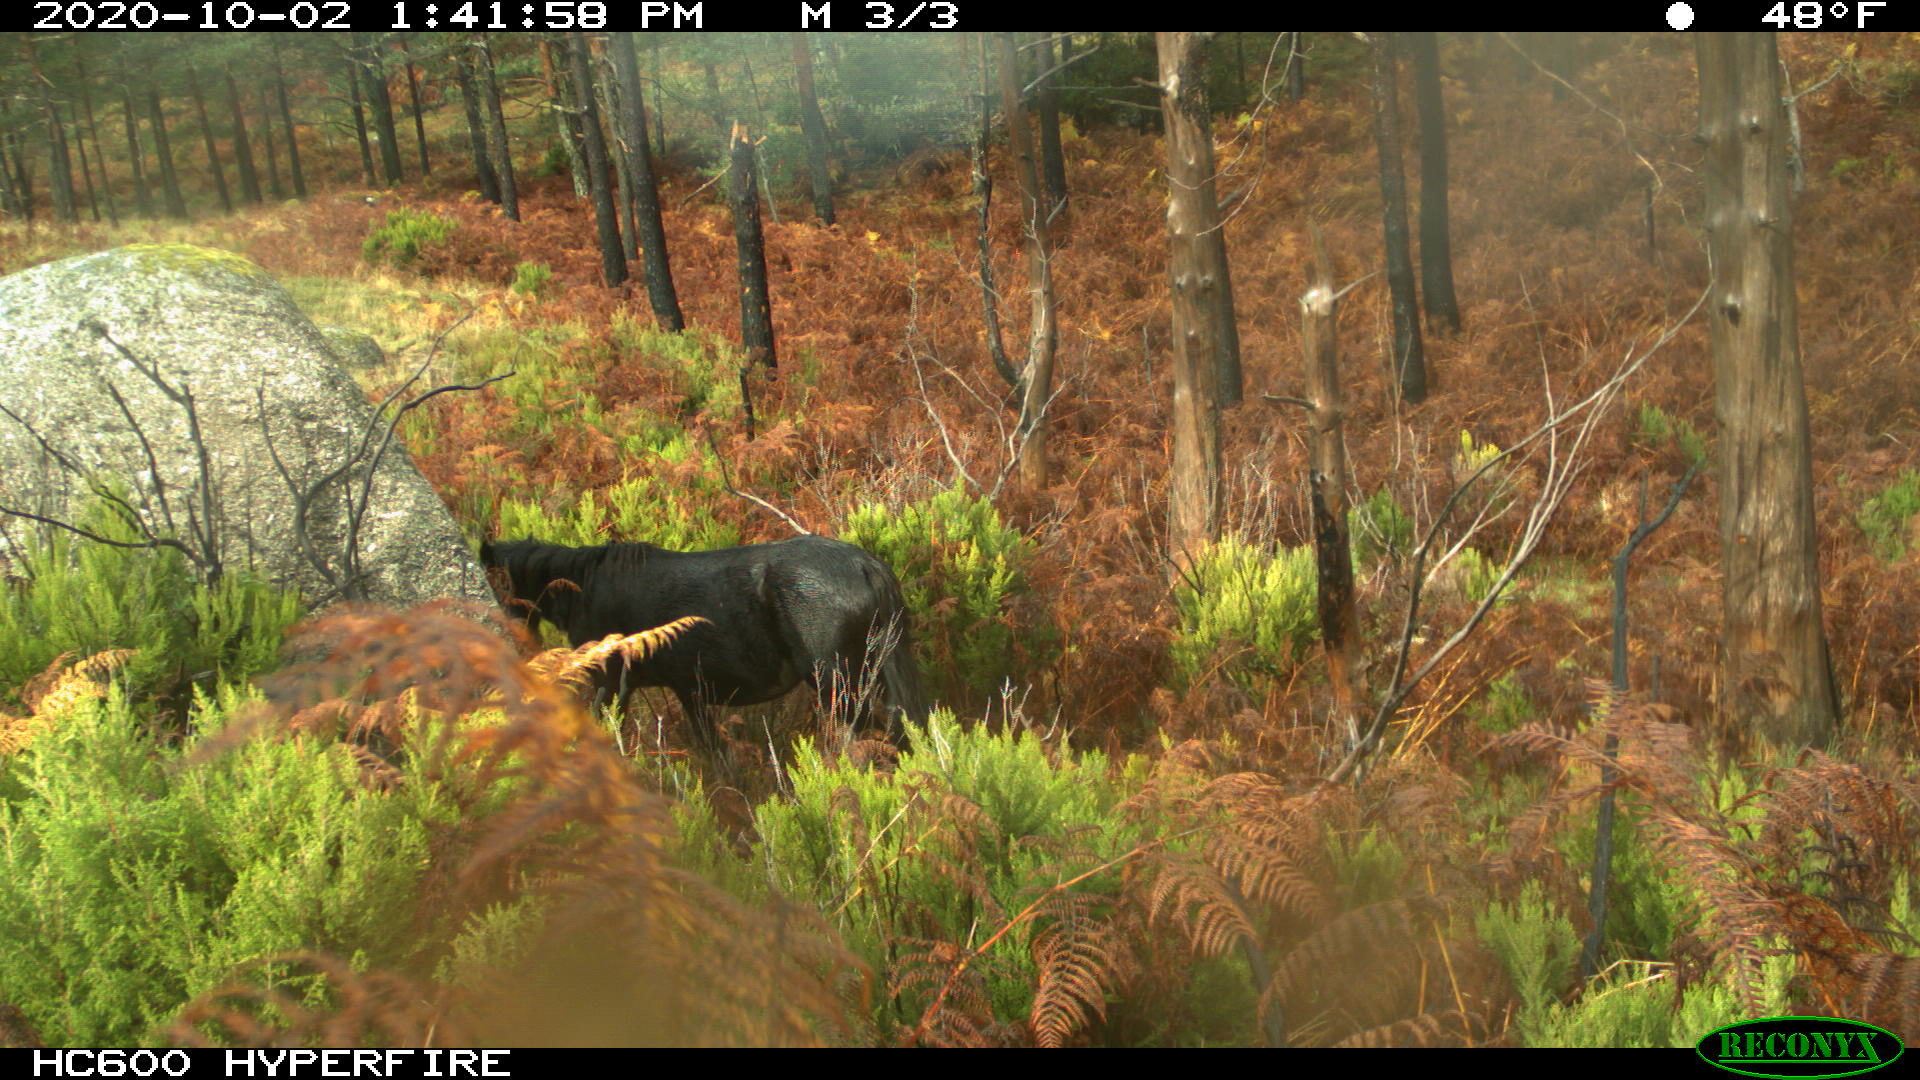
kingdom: Animalia
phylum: Chordata
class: Mammalia
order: Perissodactyla
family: Equidae
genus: Equus
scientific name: Equus caballus
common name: Horse
